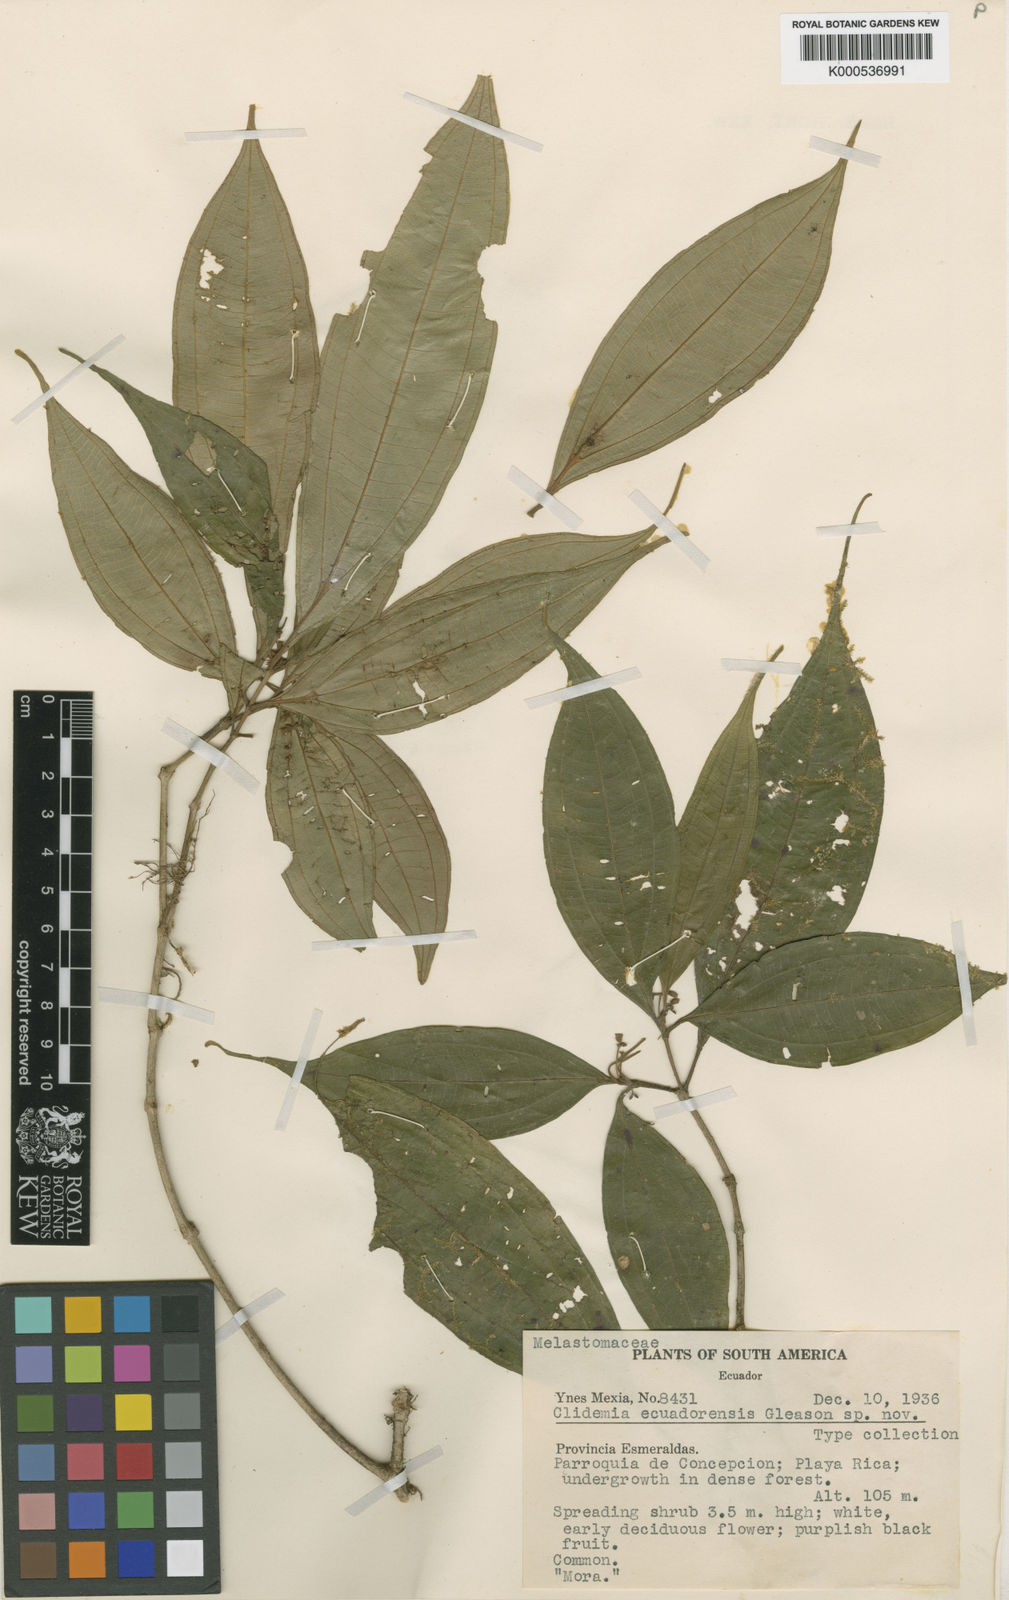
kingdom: Plantae
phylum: Tracheophyta
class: Magnoliopsida
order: Myrtales
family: Melastomataceae
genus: Miconia
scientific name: Miconia ecuadorensis
